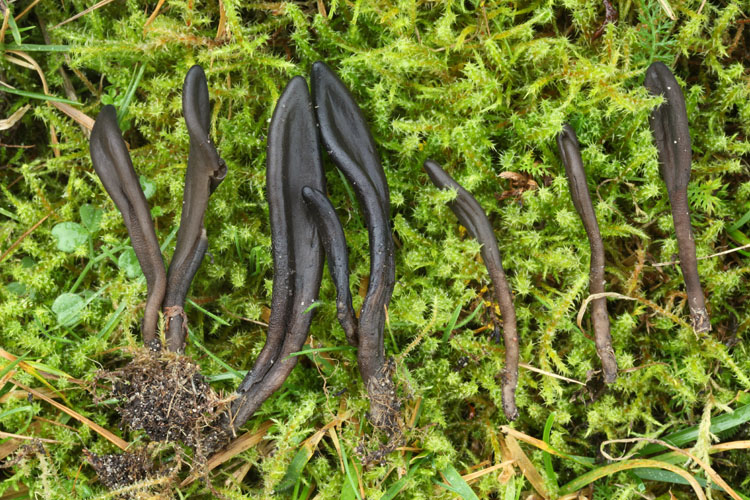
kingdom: Fungi
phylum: Ascomycota
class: Geoglossomycetes
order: Geoglossales
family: Geoglossaceae
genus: Hemileucoglossum
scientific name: Hemileucoglossum elongatum
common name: småsporet jordtunge
